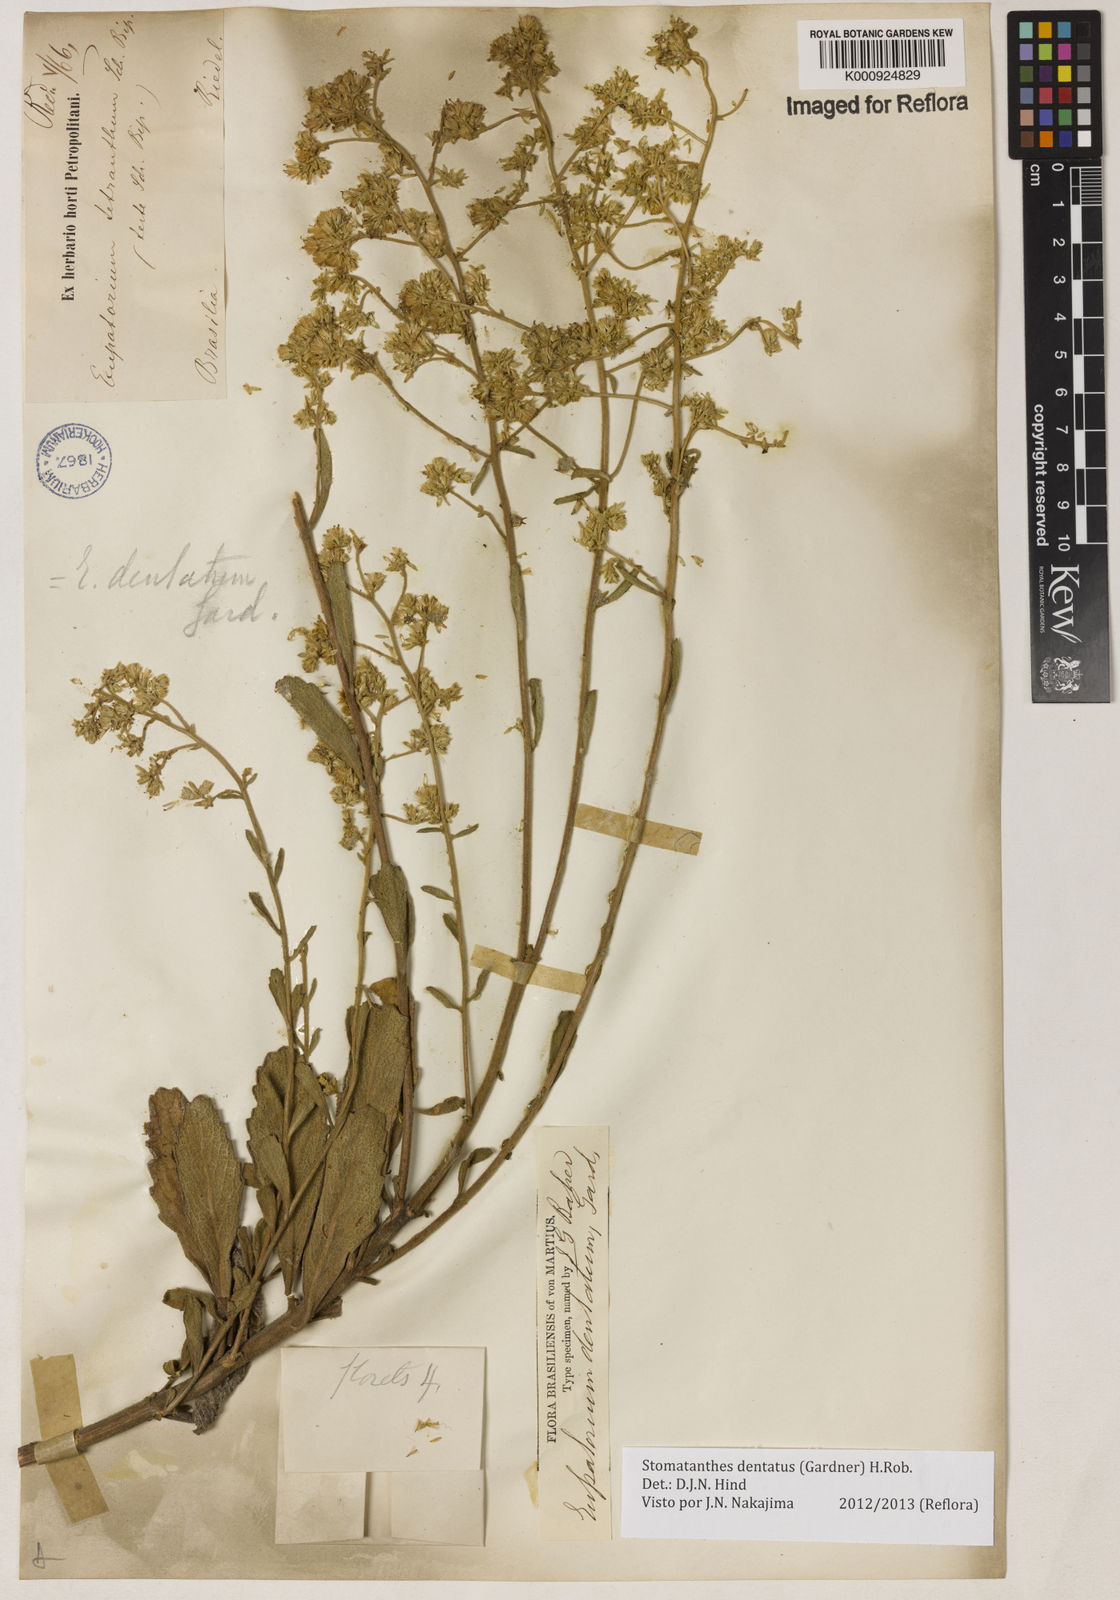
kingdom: Plantae
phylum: Tracheophyta
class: Magnoliopsida
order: Asterales
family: Asteraceae
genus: Stomatanthes
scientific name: Stomatanthes dentatus
